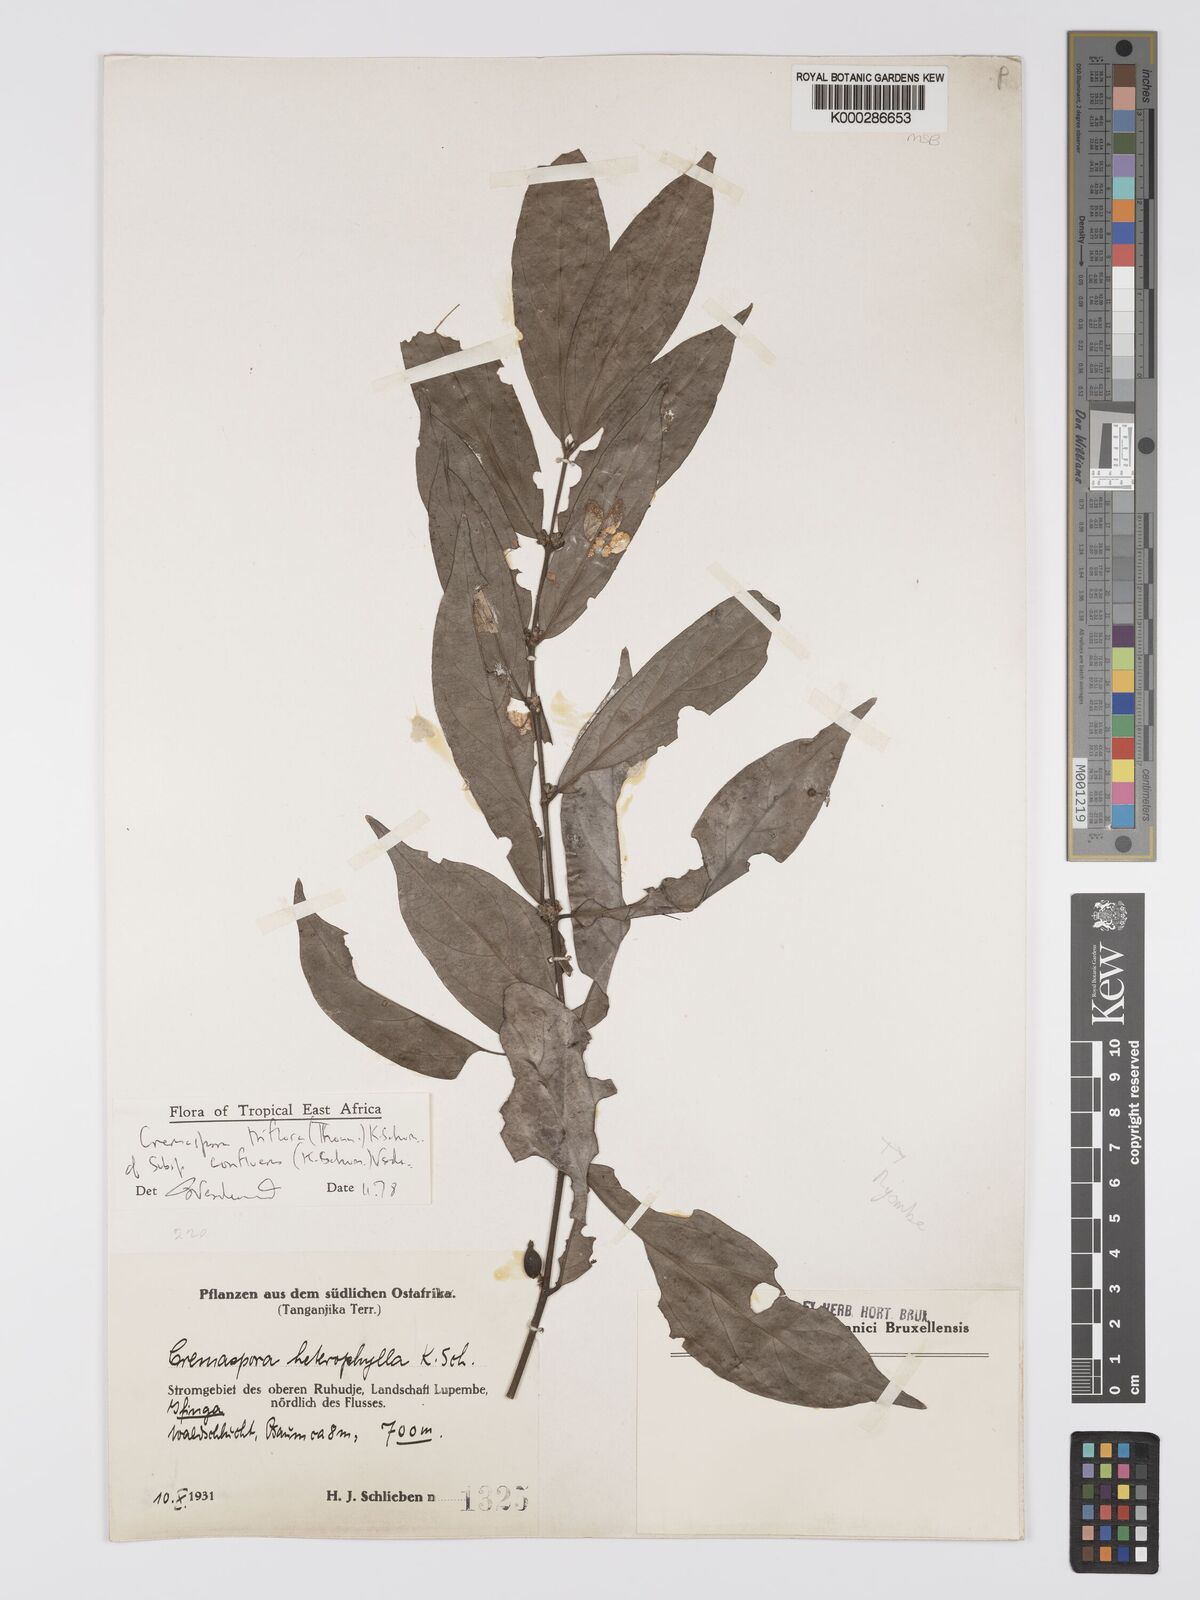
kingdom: Plantae
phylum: Tracheophyta
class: Magnoliopsida
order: Gentianales
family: Rubiaceae
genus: Cremaspora
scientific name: Cremaspora triflora
